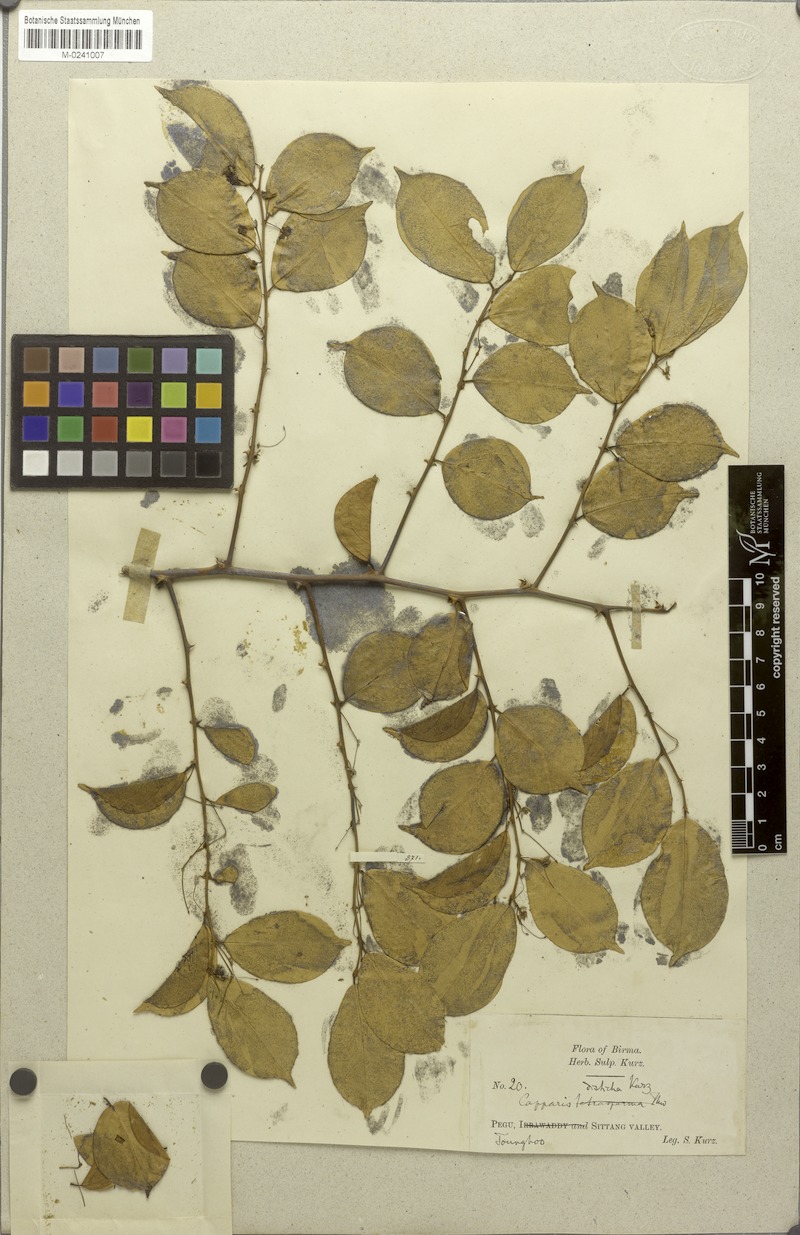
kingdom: Plantae
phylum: Tracheophyta
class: Magnoliopsida
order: Brassicales
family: Capparaceae
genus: Capparis
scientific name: Capparis tenera
